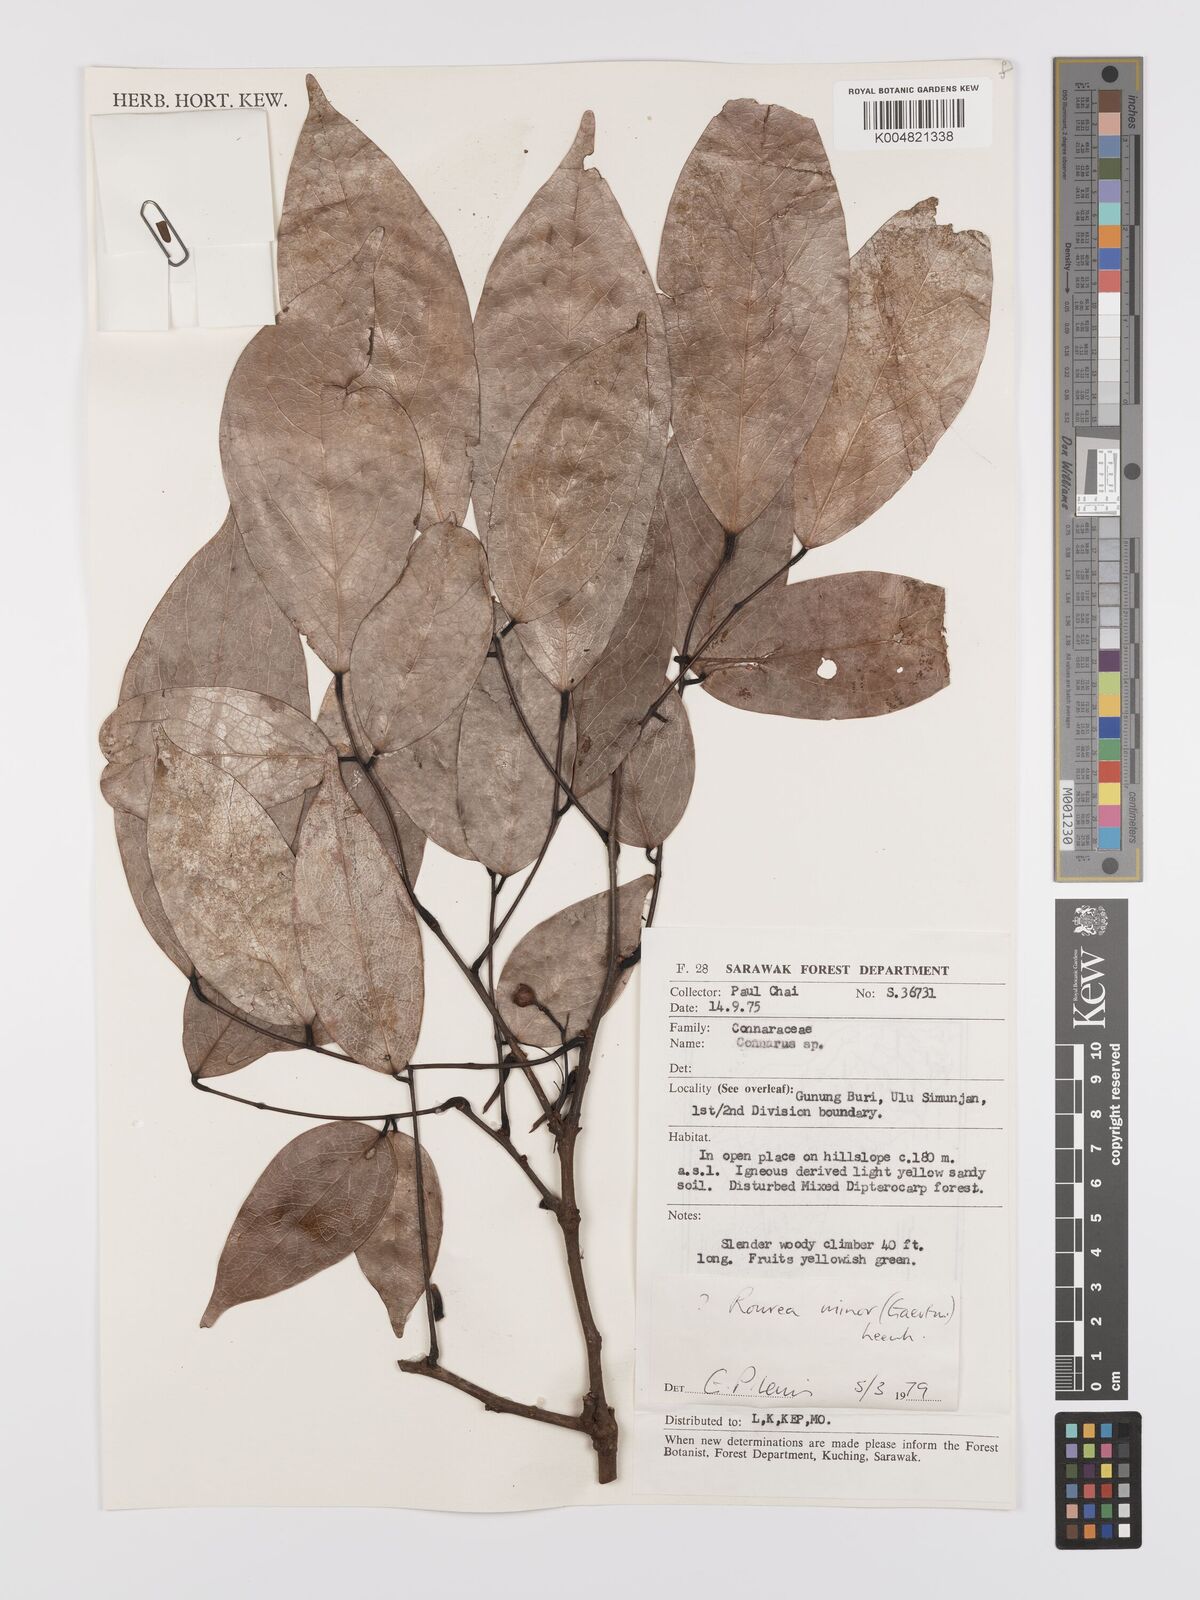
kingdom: Plantae
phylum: Tracheophyta
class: Magnoliopsida
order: Oxalidales
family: Connaraceae
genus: Rourea
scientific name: Rourea minor
